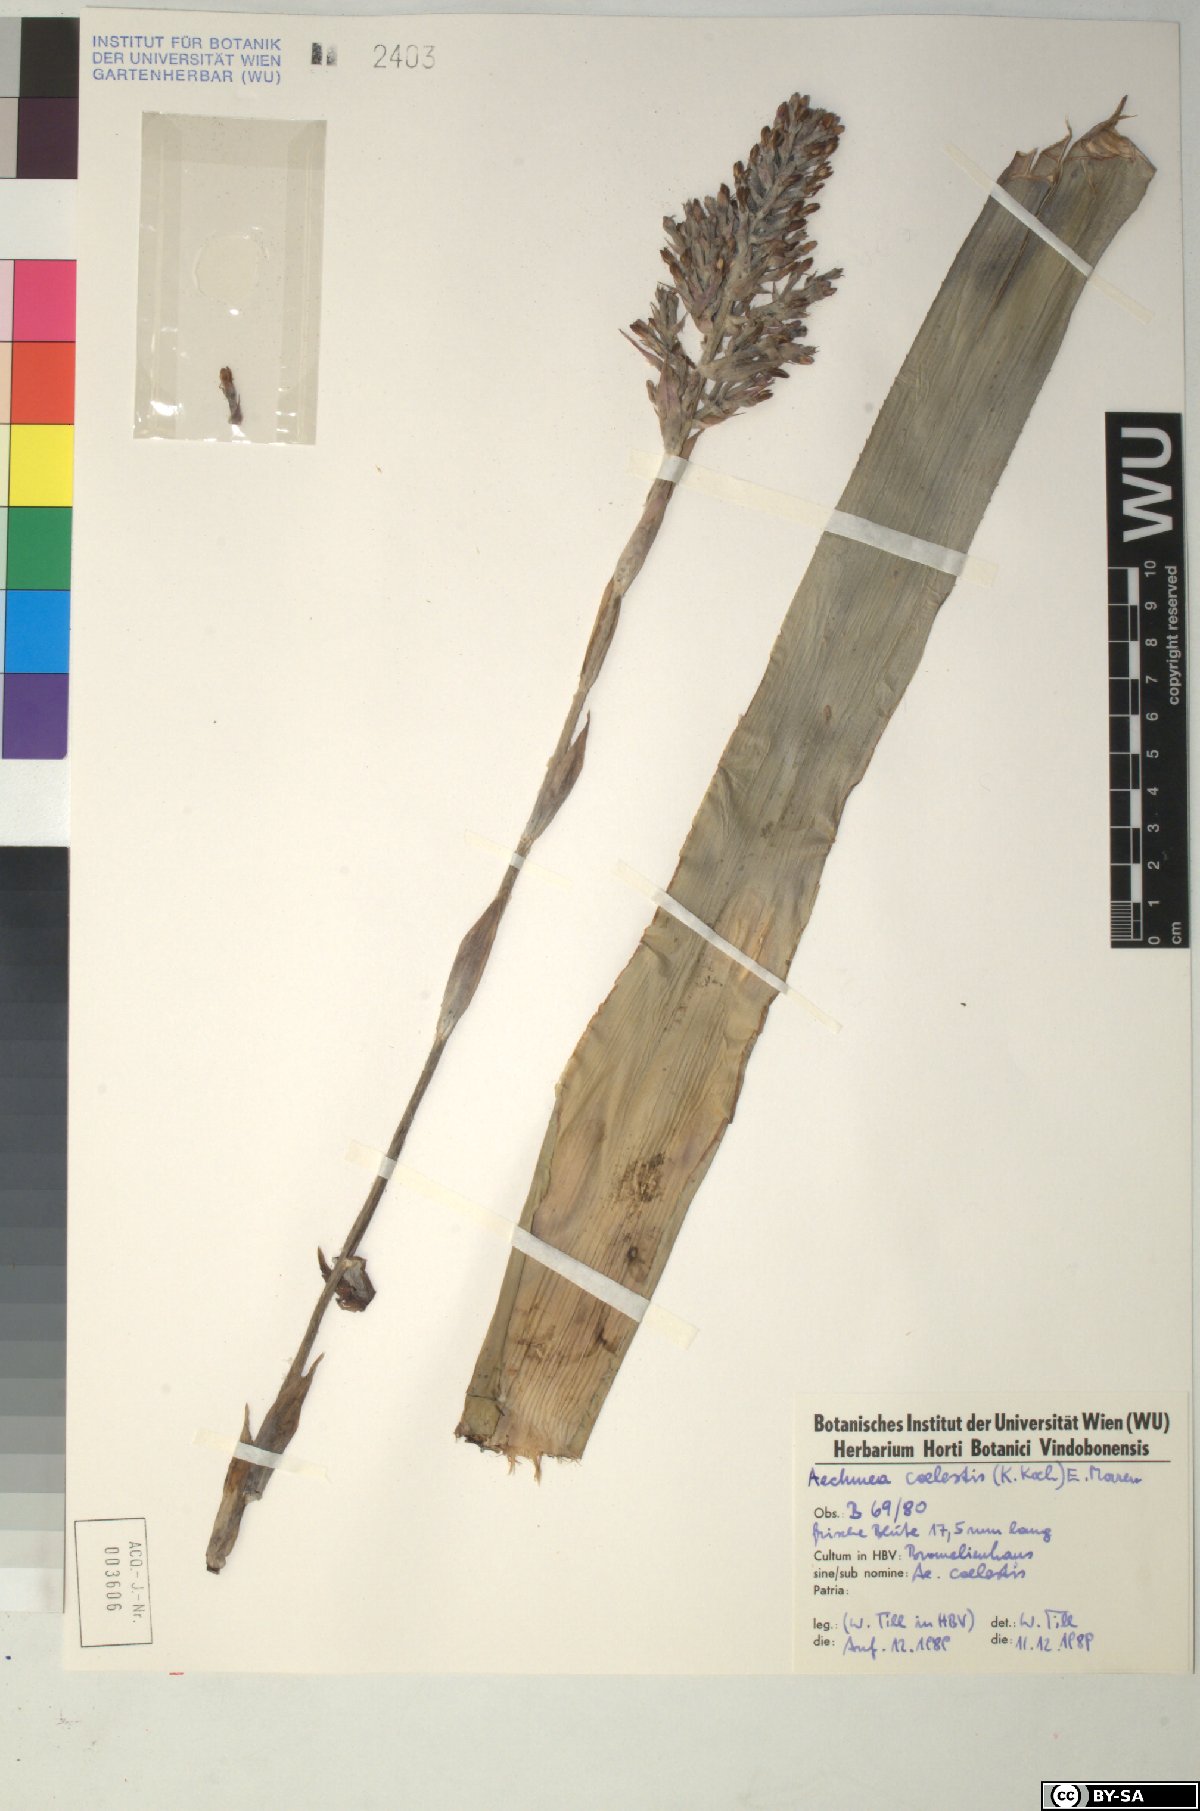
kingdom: Plantae
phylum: Tracheophyta
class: Liliopsida
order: Poales
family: Bromeliaceae
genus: Aechmea
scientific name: Aechmea coelestis
